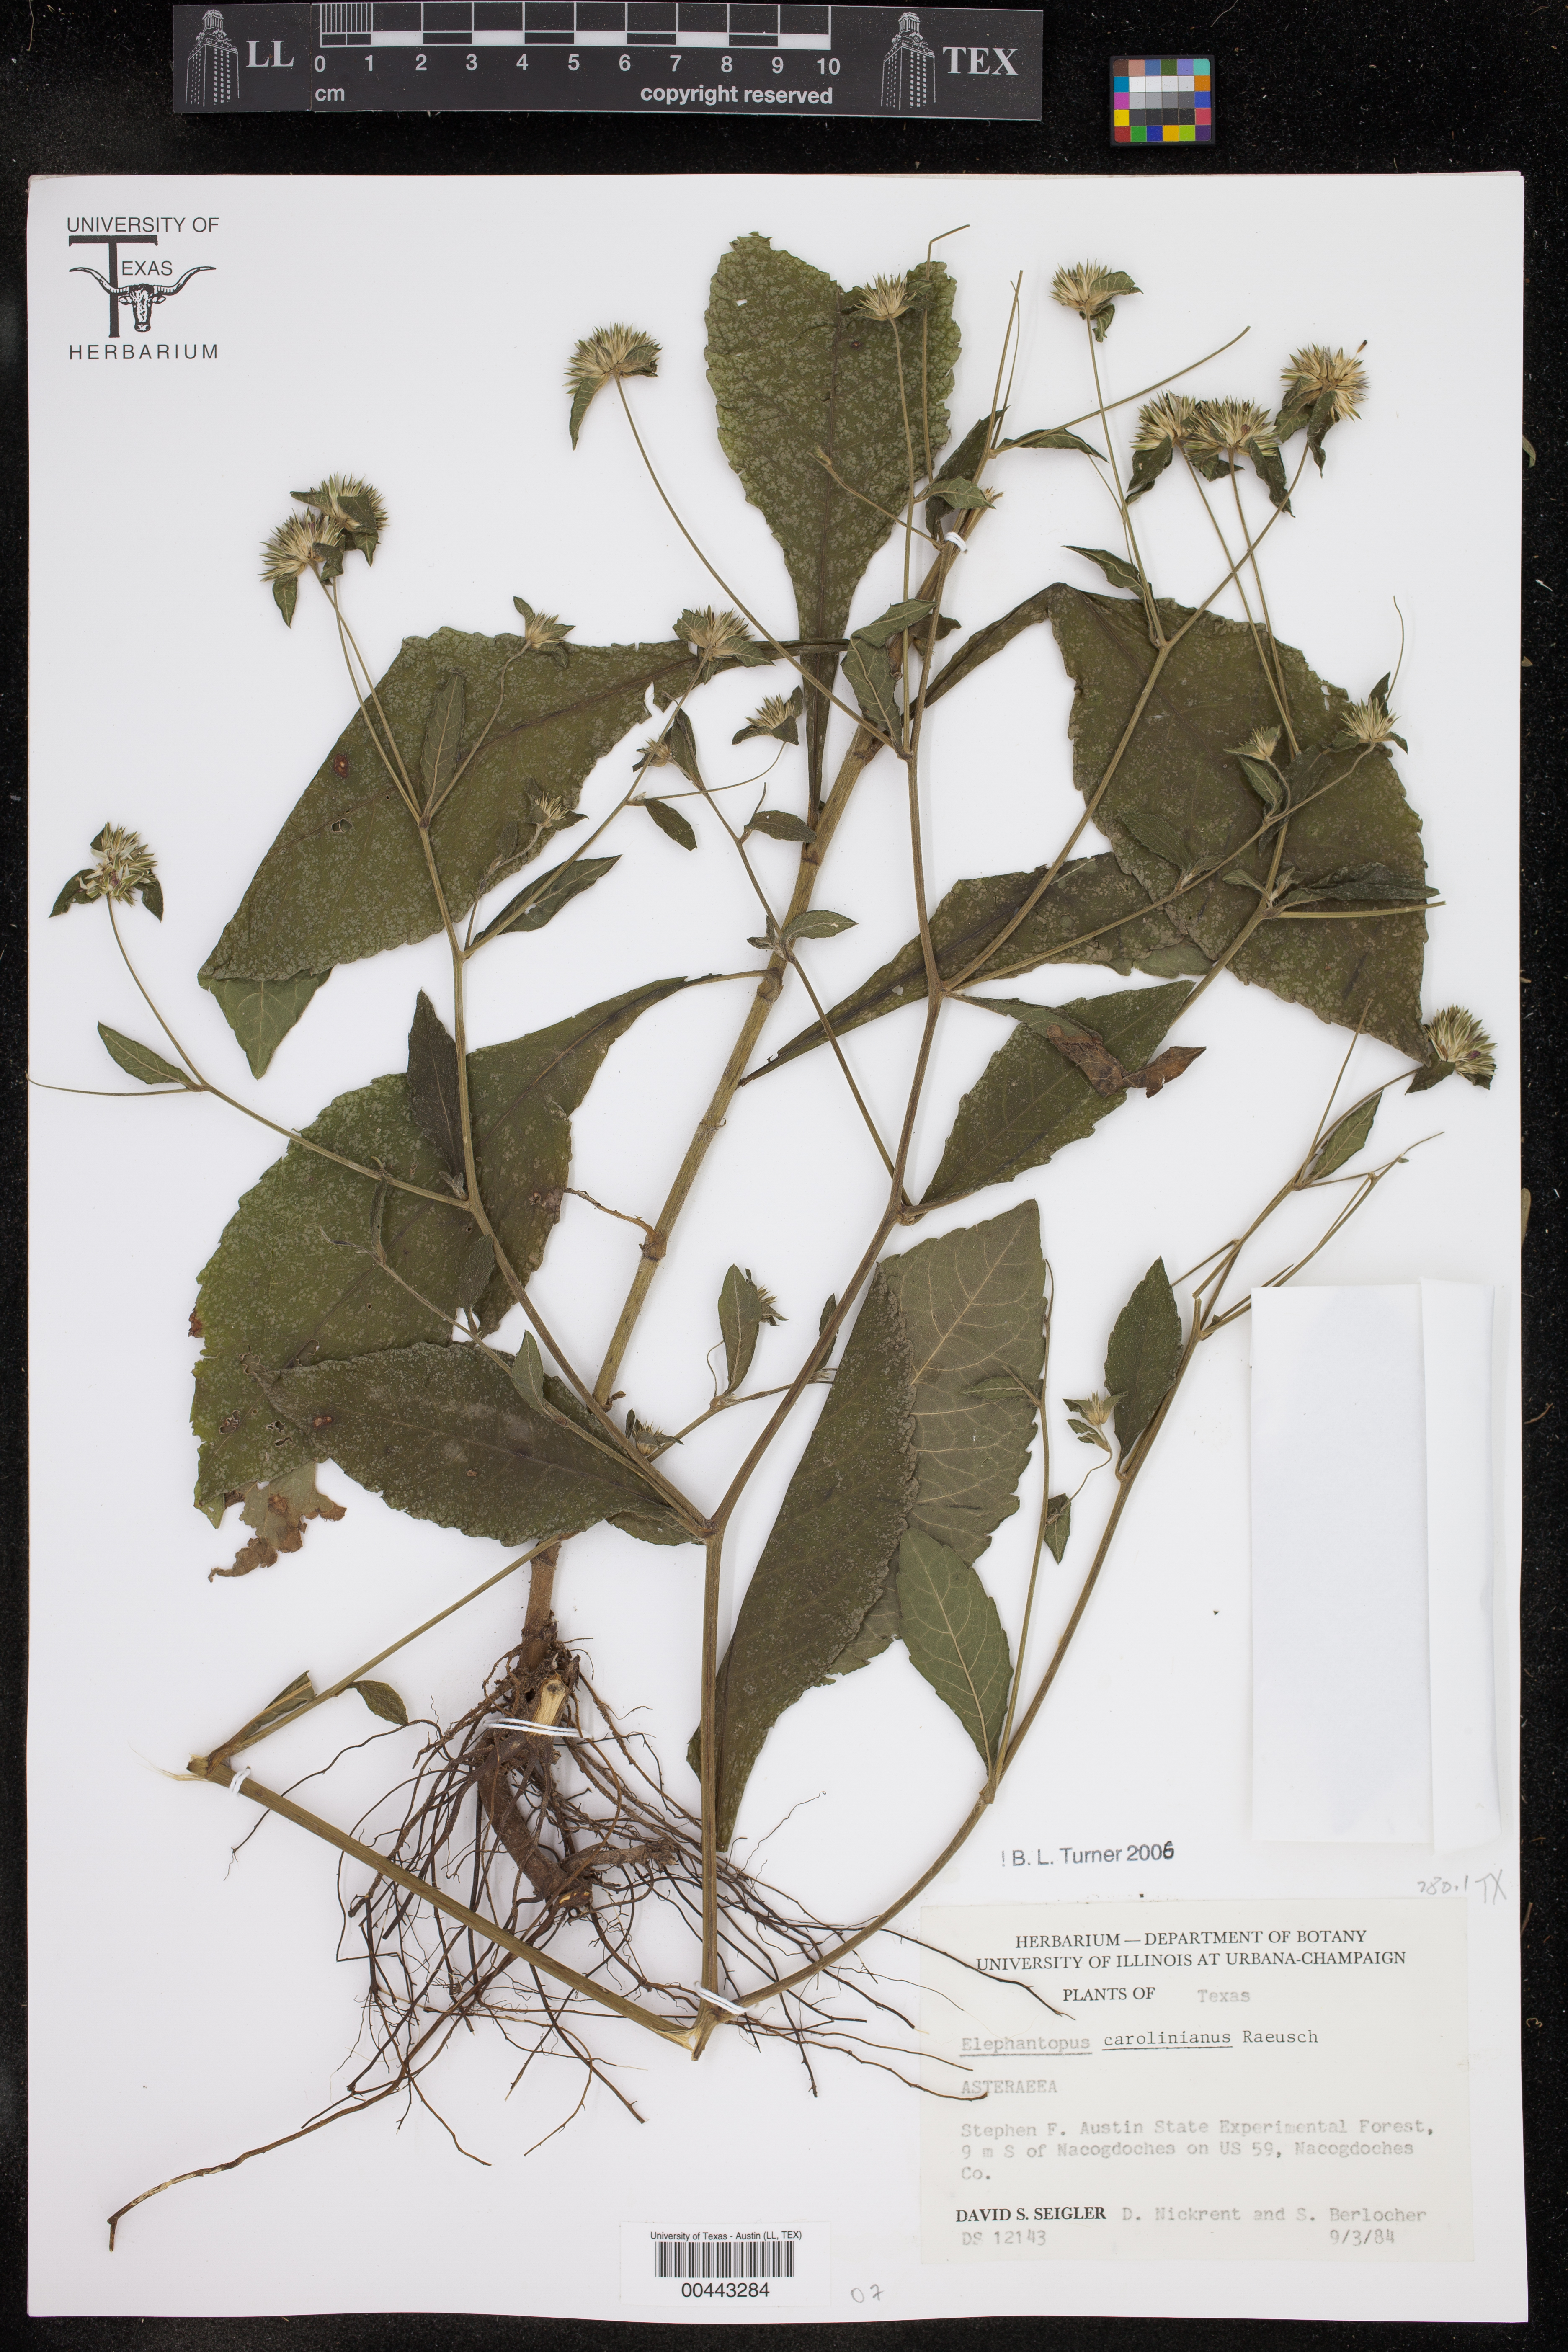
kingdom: Plantae
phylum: Tracheophyta
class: Magnoliopsida
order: Asterales
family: Asteraceae
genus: Elephantopus
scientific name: Elephantopus carolinianus
